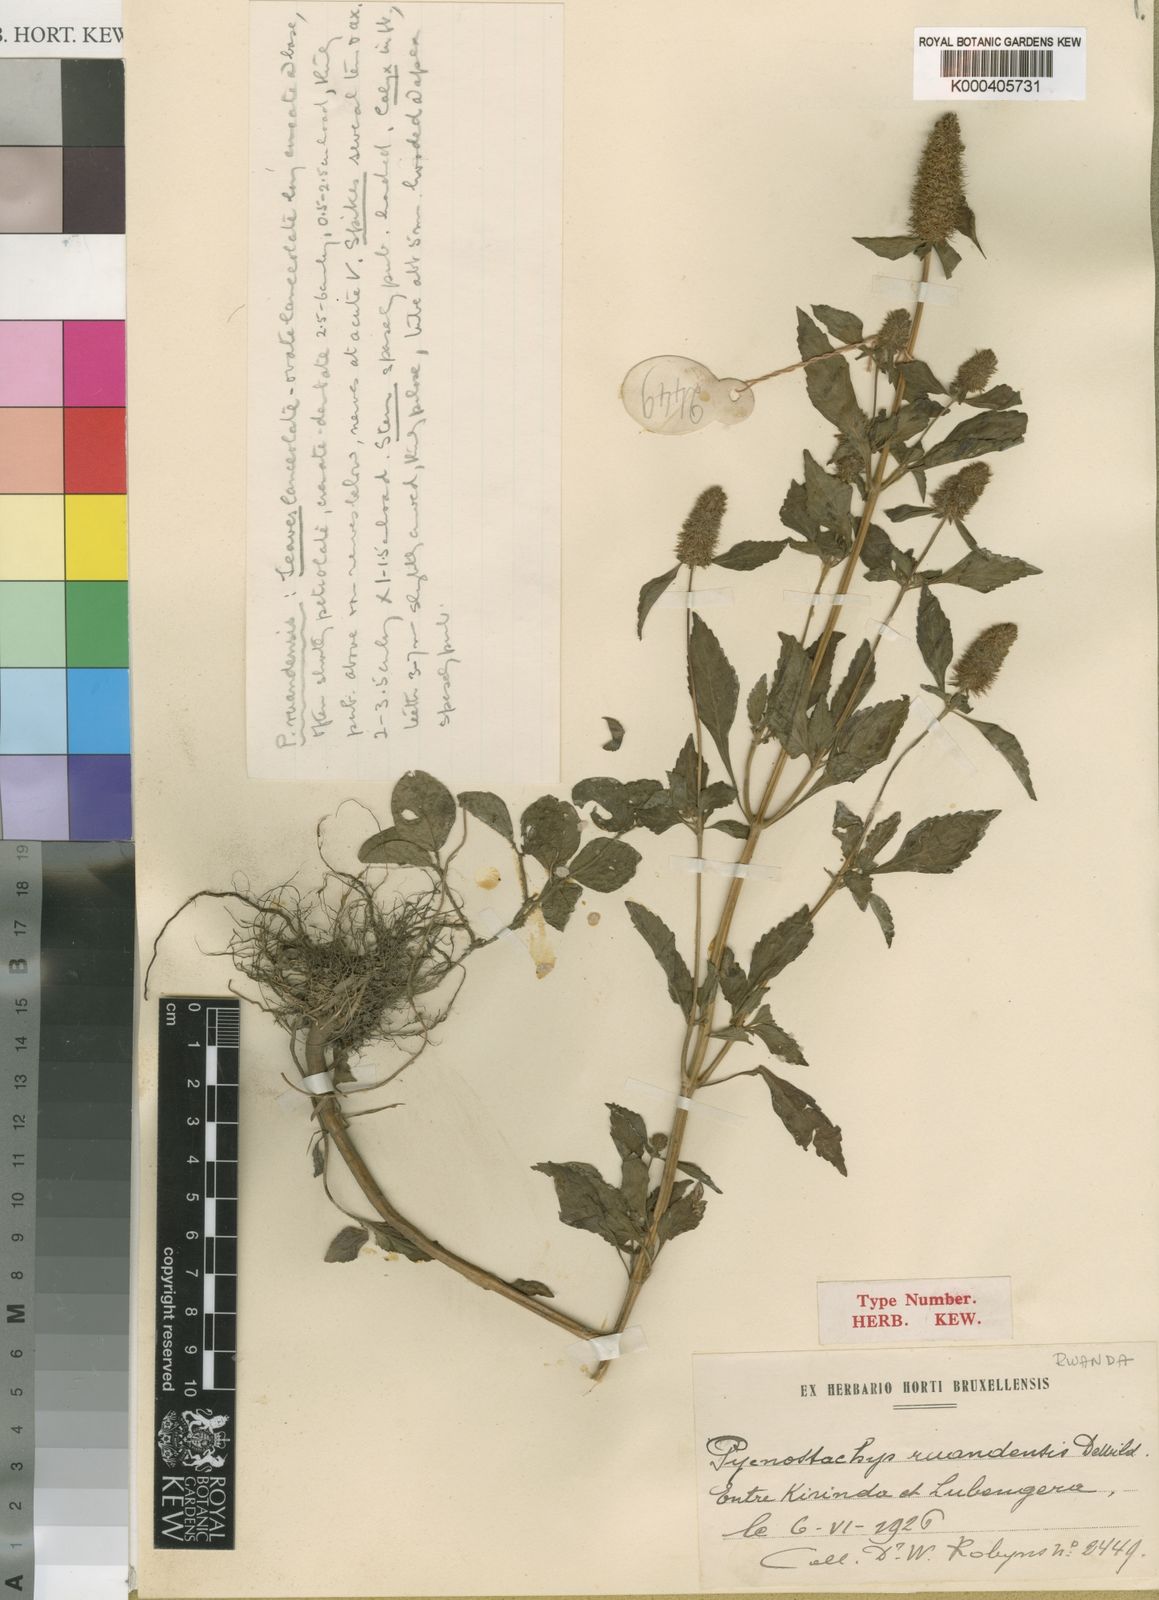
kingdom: Plantae
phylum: Tracheophyta
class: Magnoliopsida
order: Lamiales
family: Lamiaceae
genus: Coleus
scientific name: Coleus ruandensis
